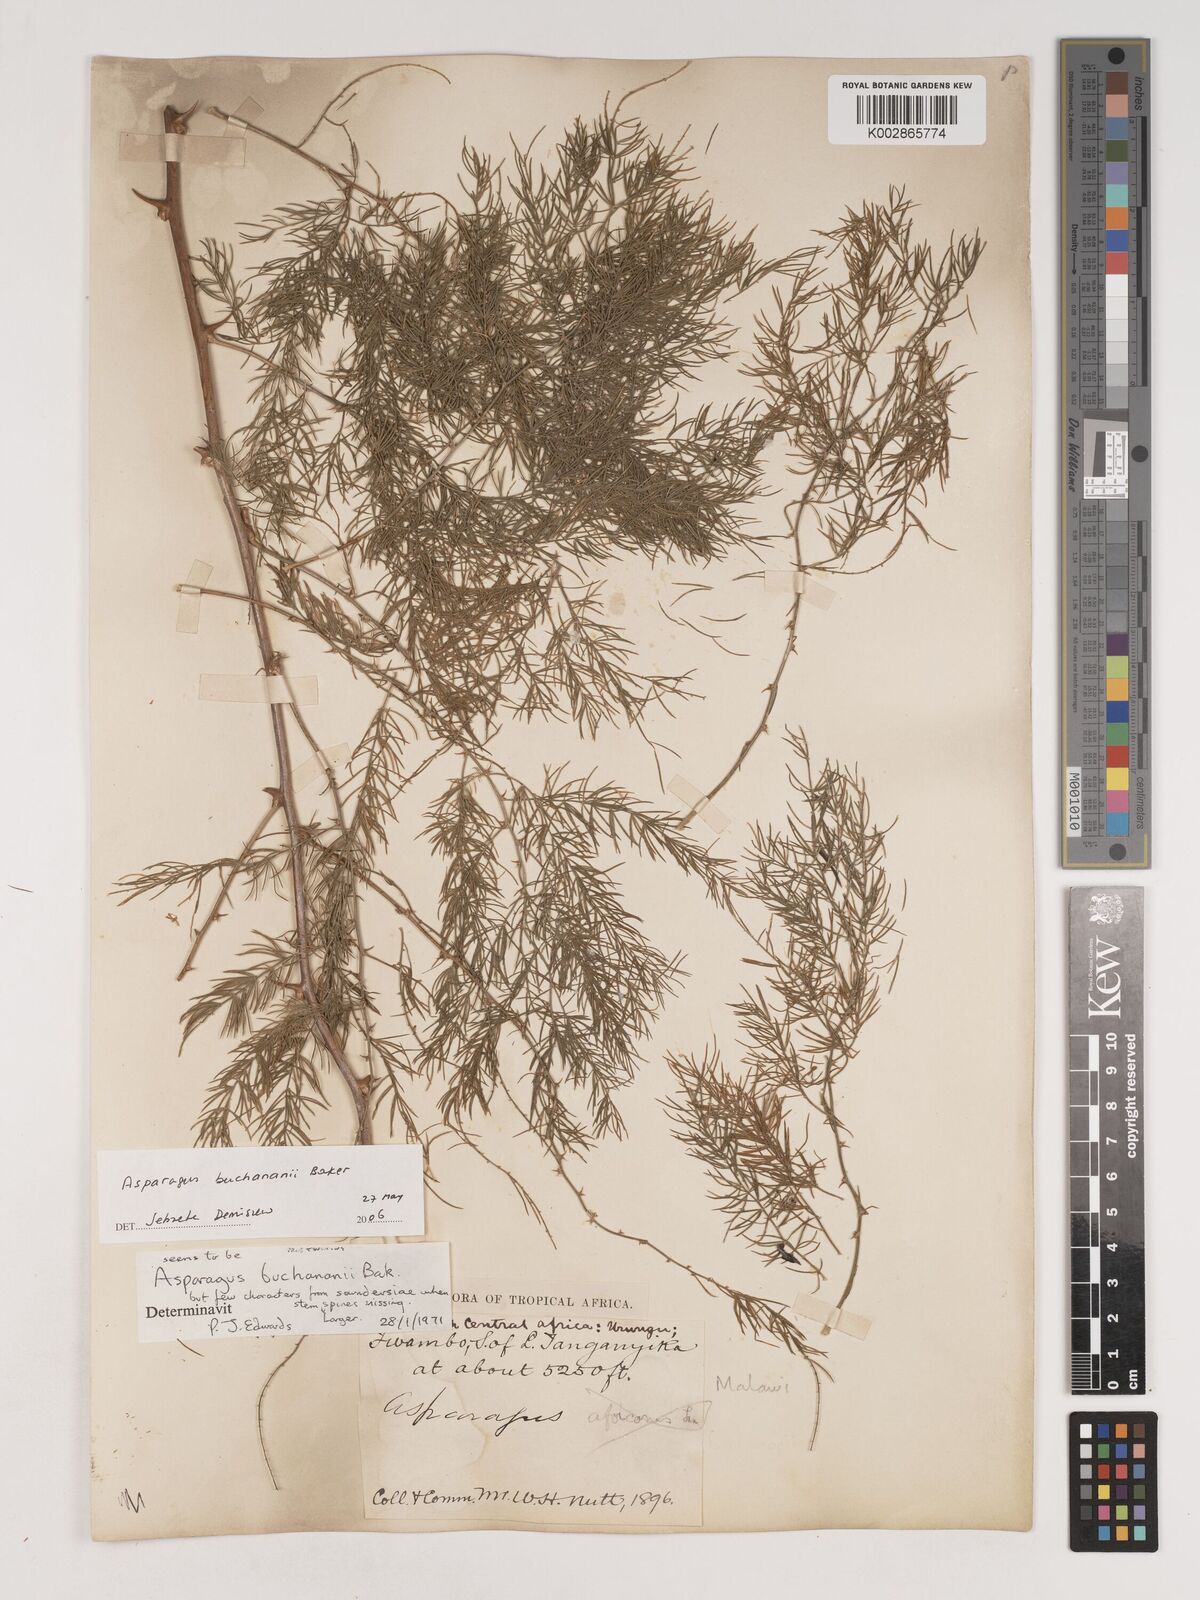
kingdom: Plantae
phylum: Tracheophyta
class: Liliopsida
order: Asparagales
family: Asparagaceae
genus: Asparagus
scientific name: Asparagus buchananii
